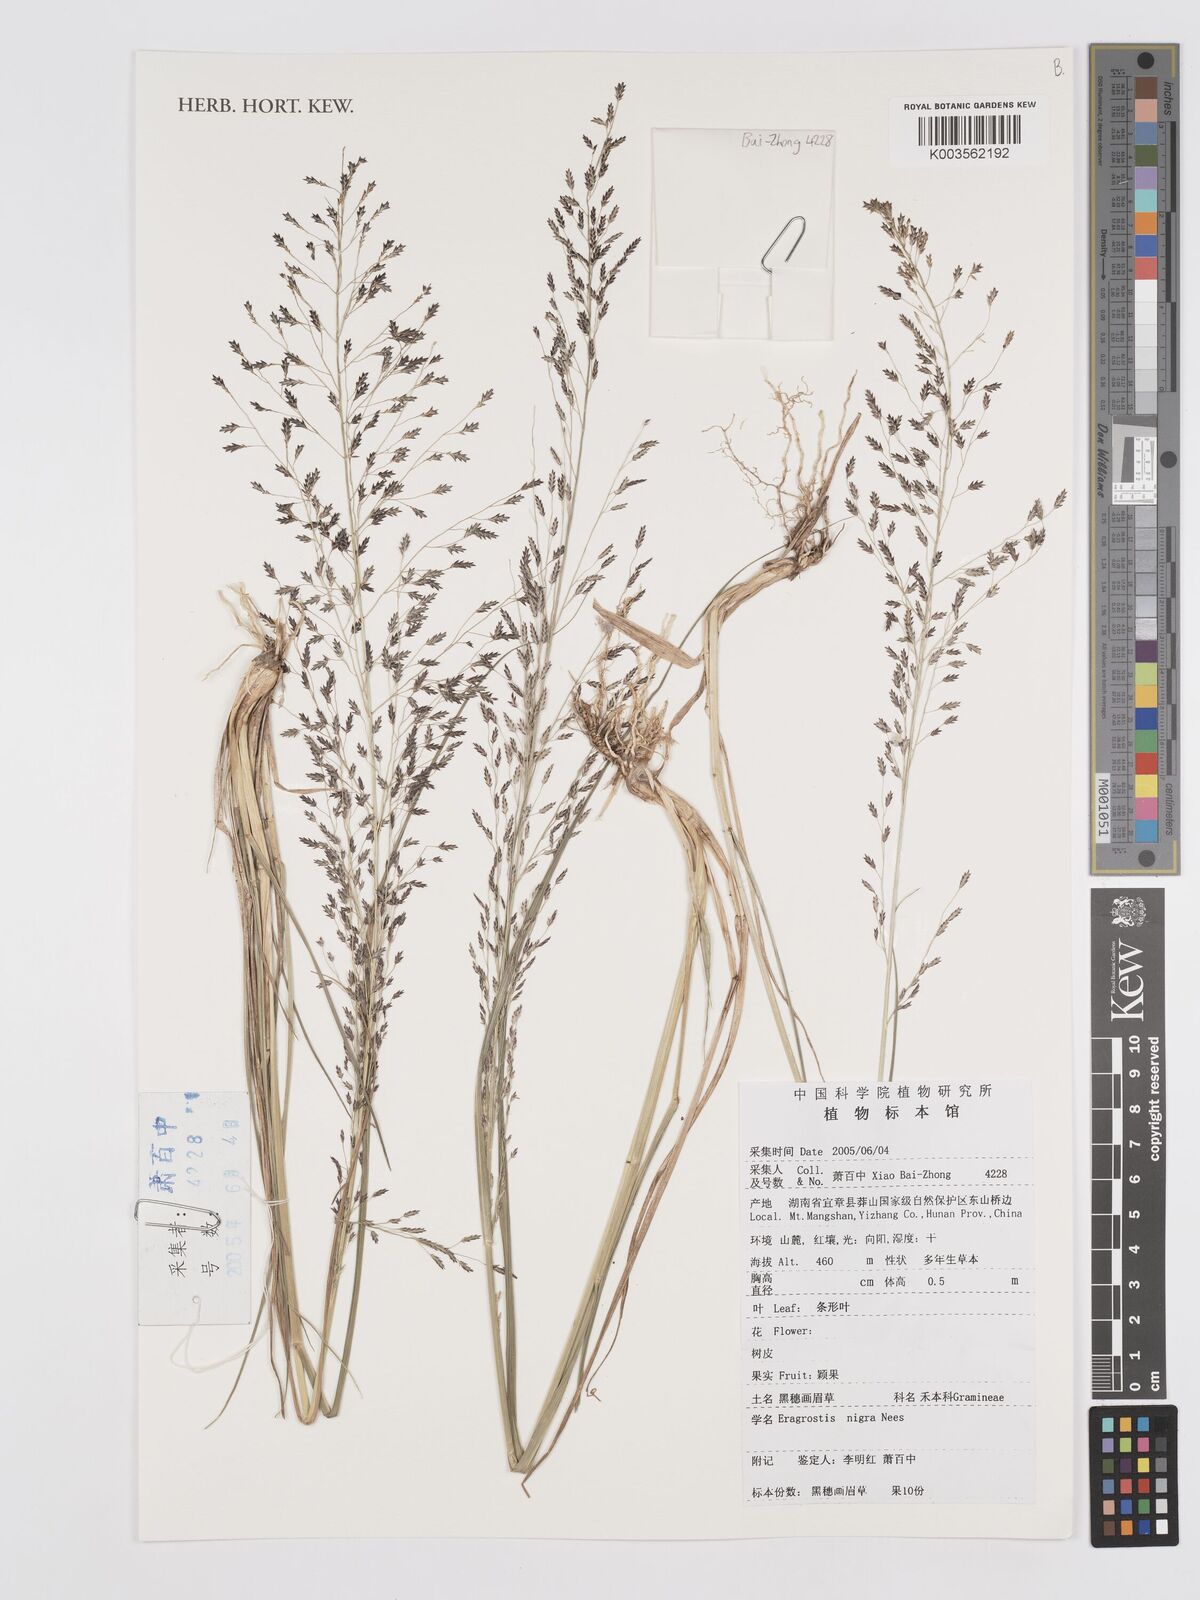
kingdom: Plantae
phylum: Tracheophyta
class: Liliopsida
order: Poales
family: Poaceae
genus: Eragrostis
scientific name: Eragrostis nigra
